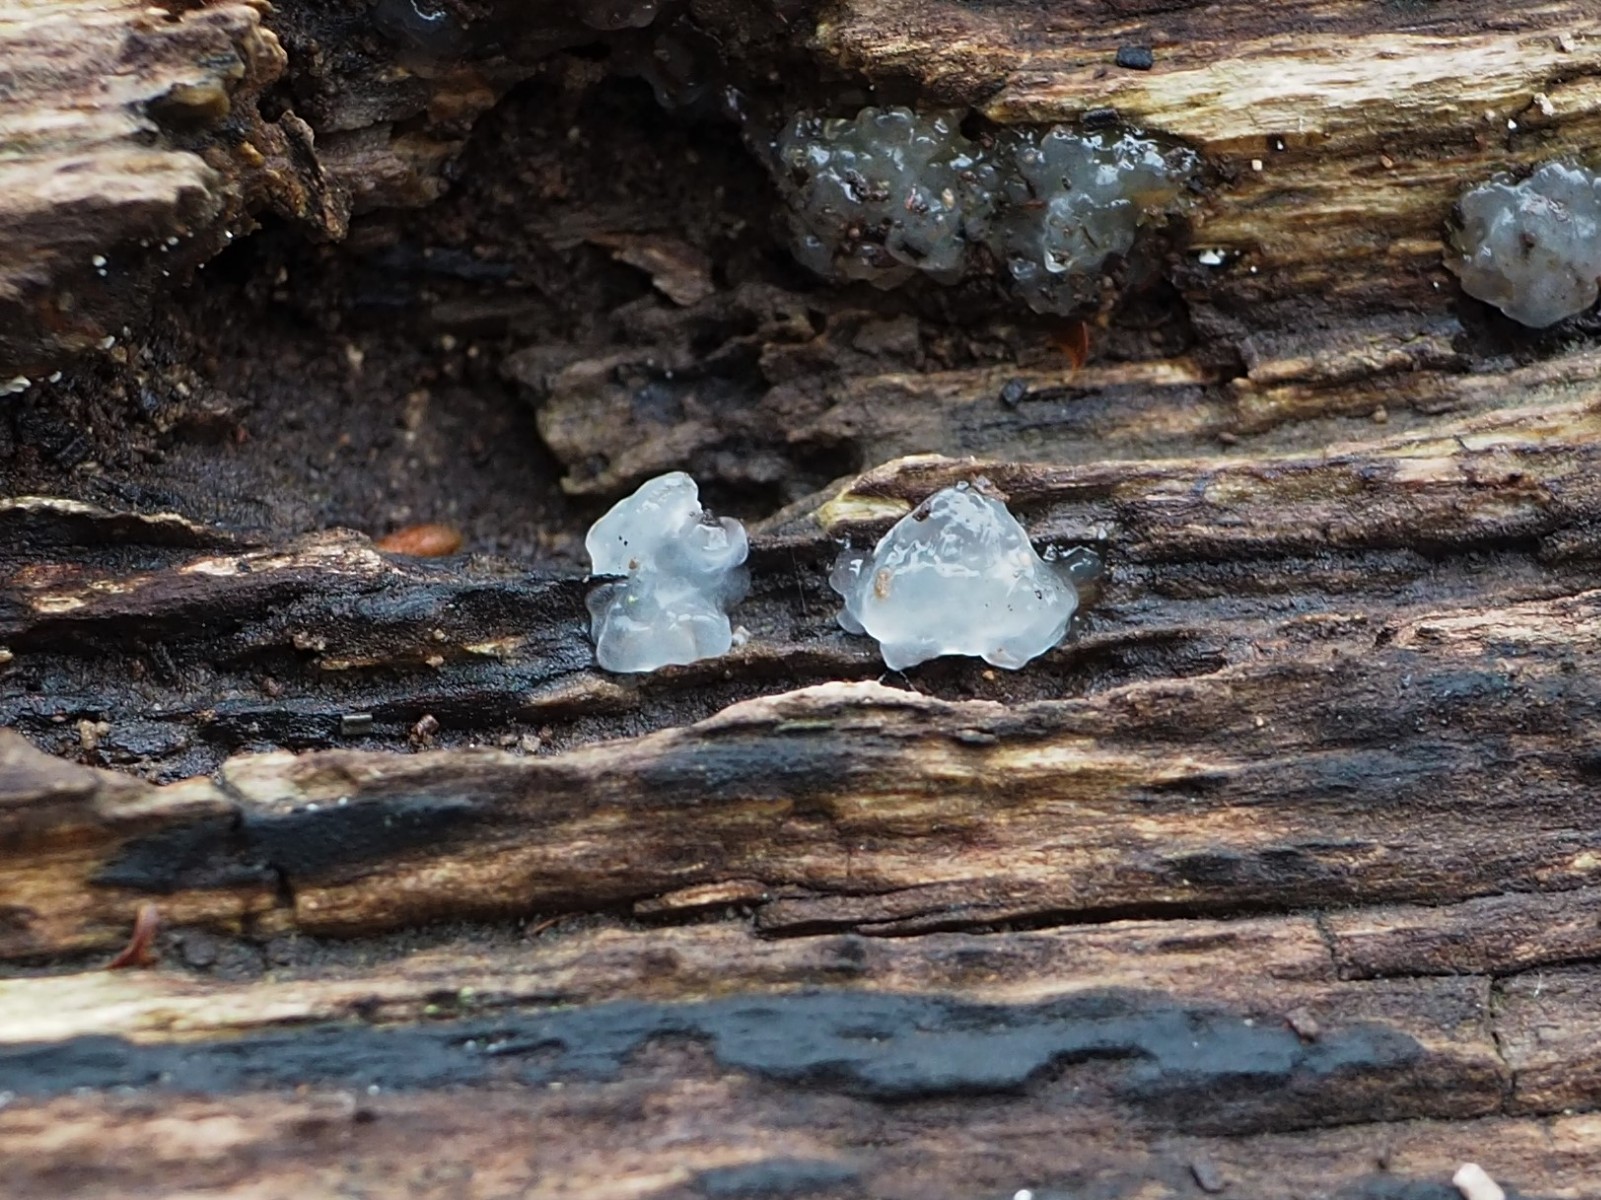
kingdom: Fungi
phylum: Basidiomycota
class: Agaricomycetes
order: Auriculariales
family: Hyaloriaceae
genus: Myxarium
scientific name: Myxarium nucleatum
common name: klar bævretop
